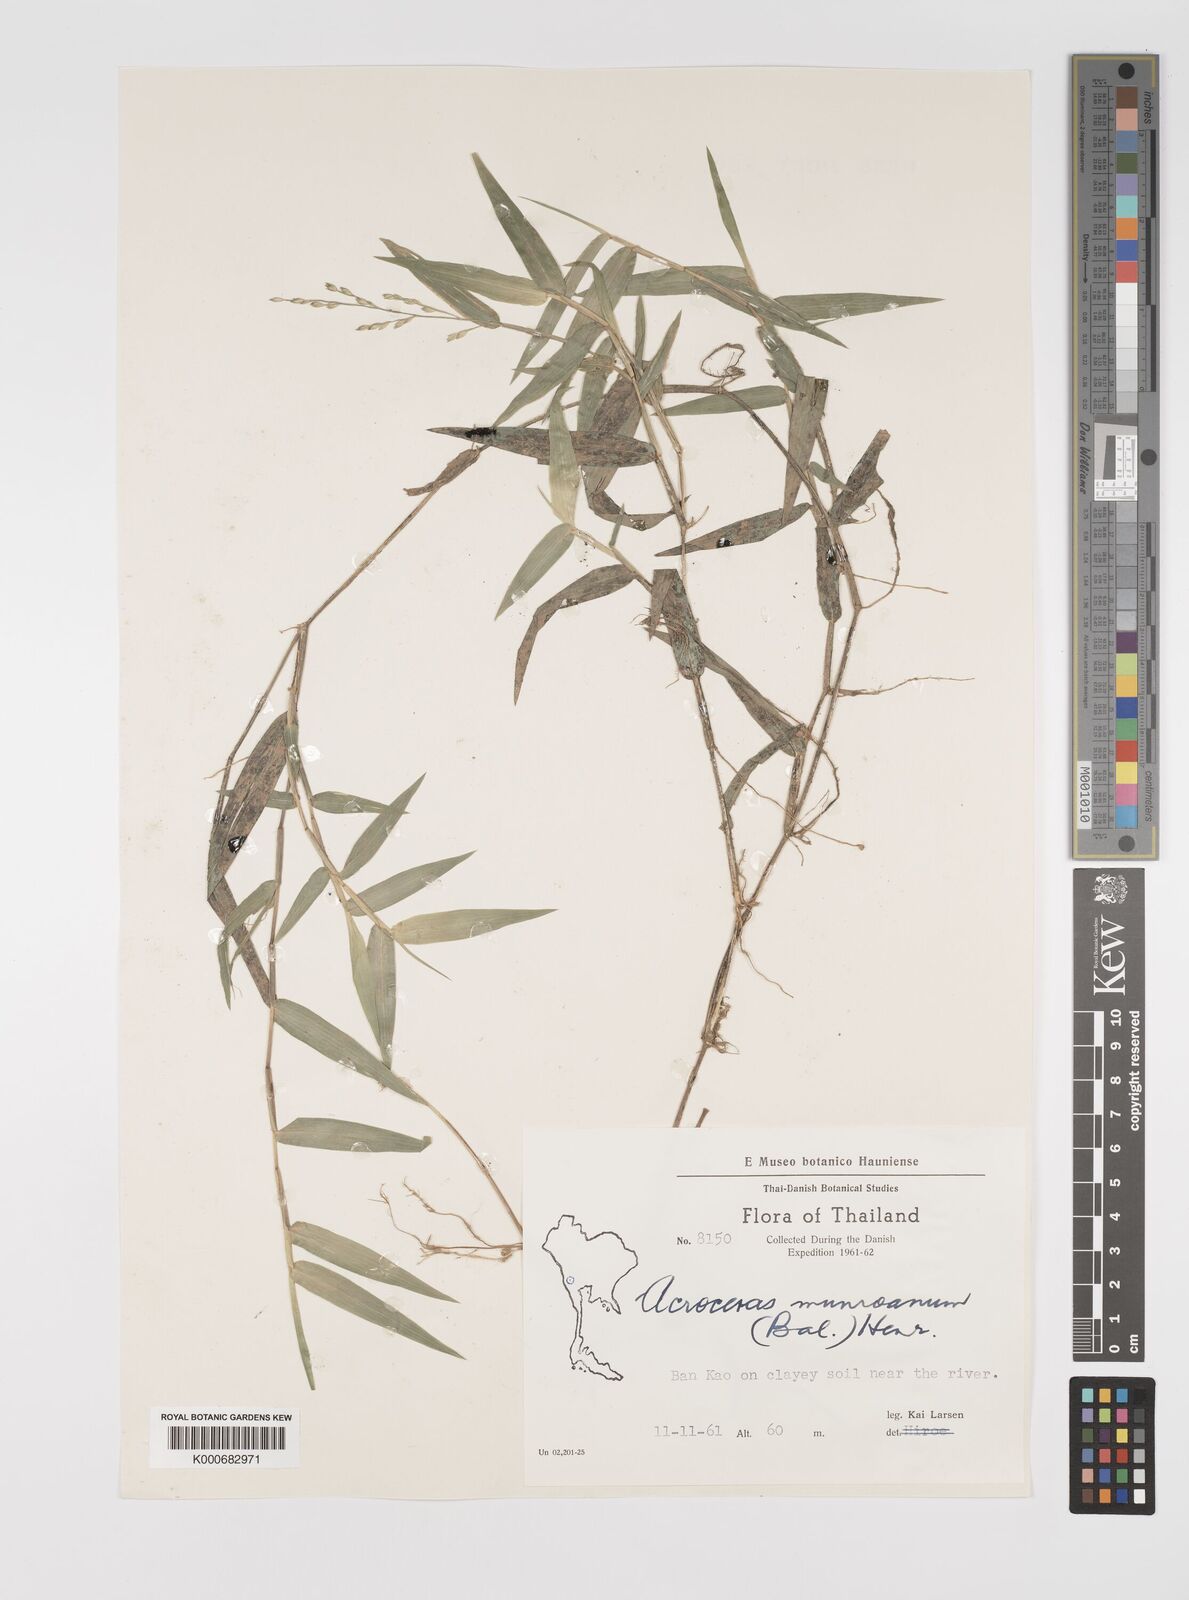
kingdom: Plantae
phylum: Tracheophyta
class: Liliopsida
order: Poales
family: Poaceae
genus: Acroceras
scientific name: Acroceras munroanum
